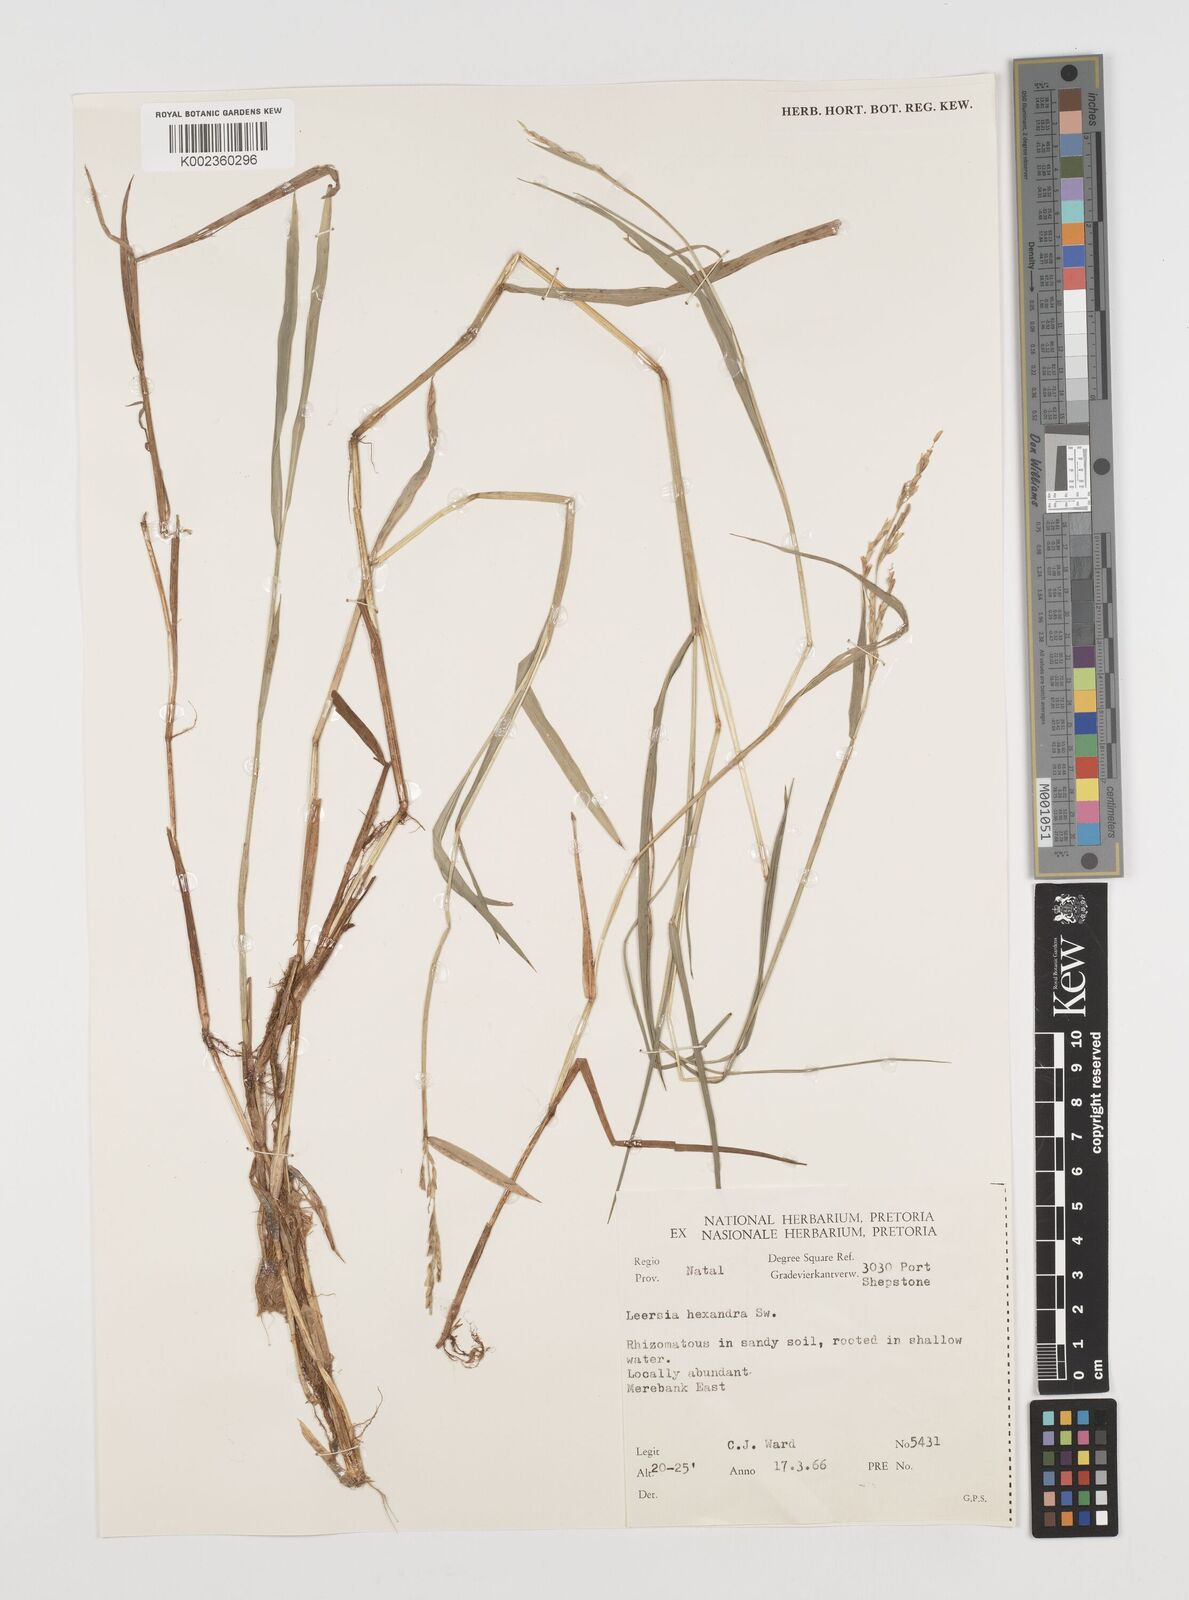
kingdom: Plantae
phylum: Tracheophyta
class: Liliopsida
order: Poales
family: Poaceae
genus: Leersia
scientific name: Leersia hexandra
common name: Southern cut grass
